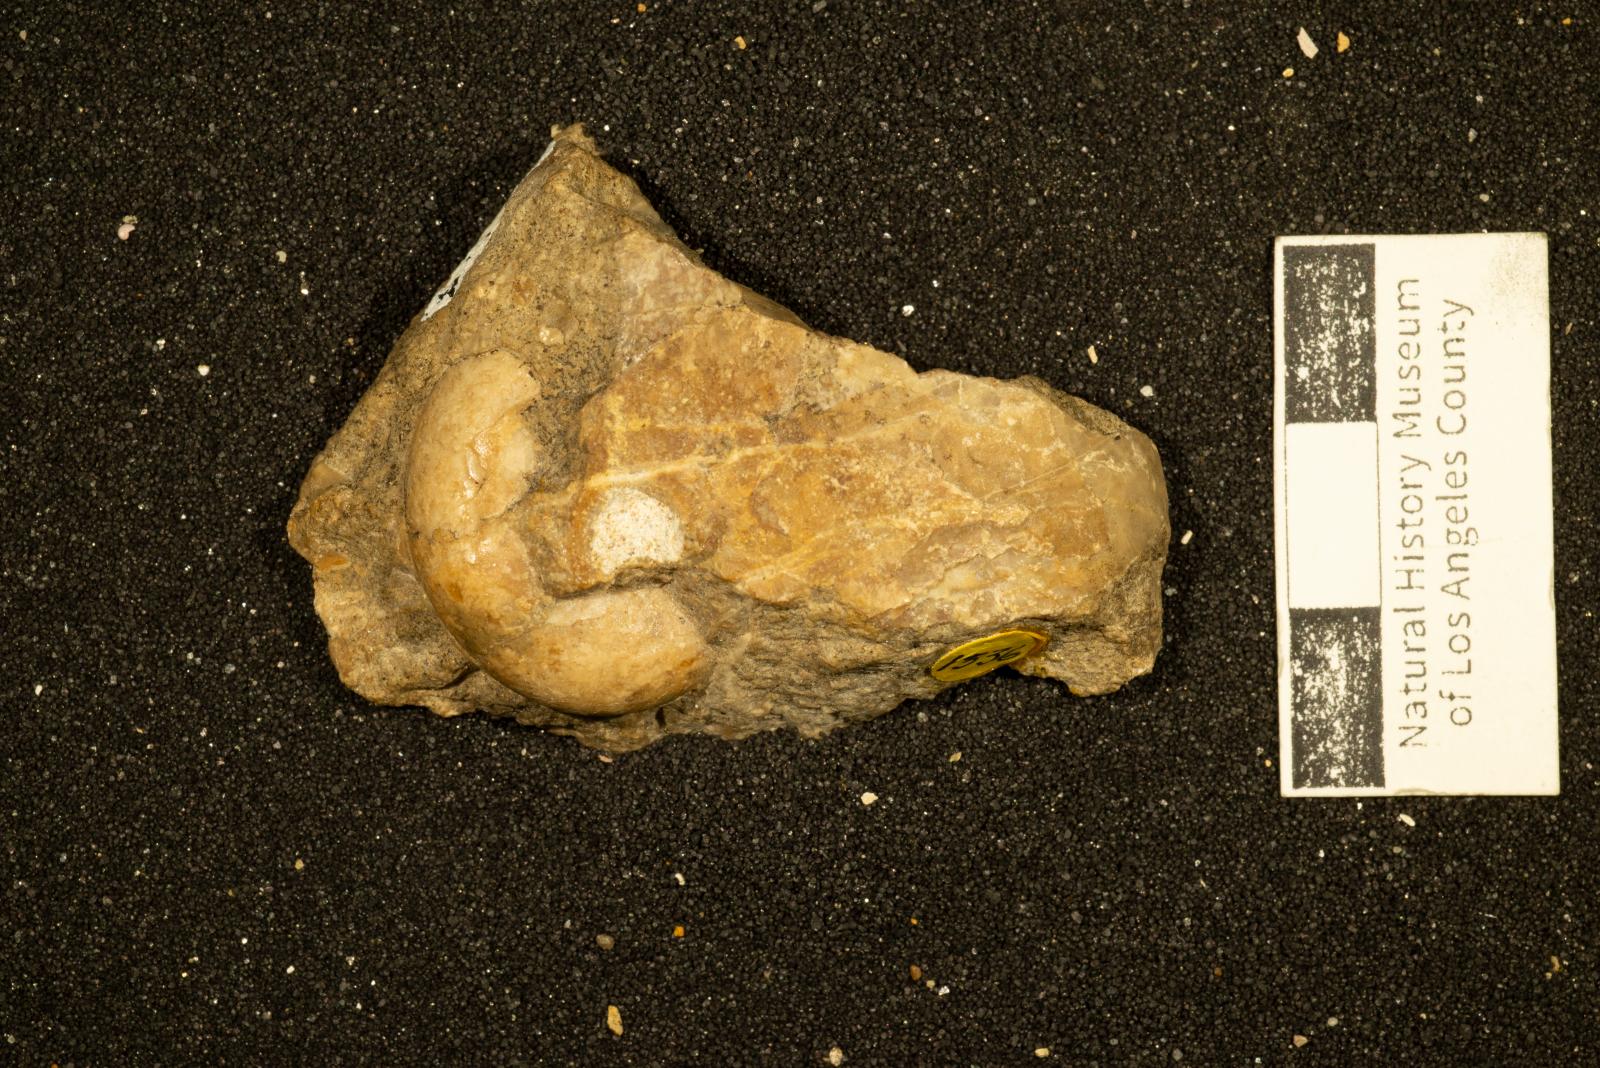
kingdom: Animalia
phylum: Mollusca
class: Cephalopoda
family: Desmoceratidae
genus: Desmophyllites
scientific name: Desmophyllites diphylloides
